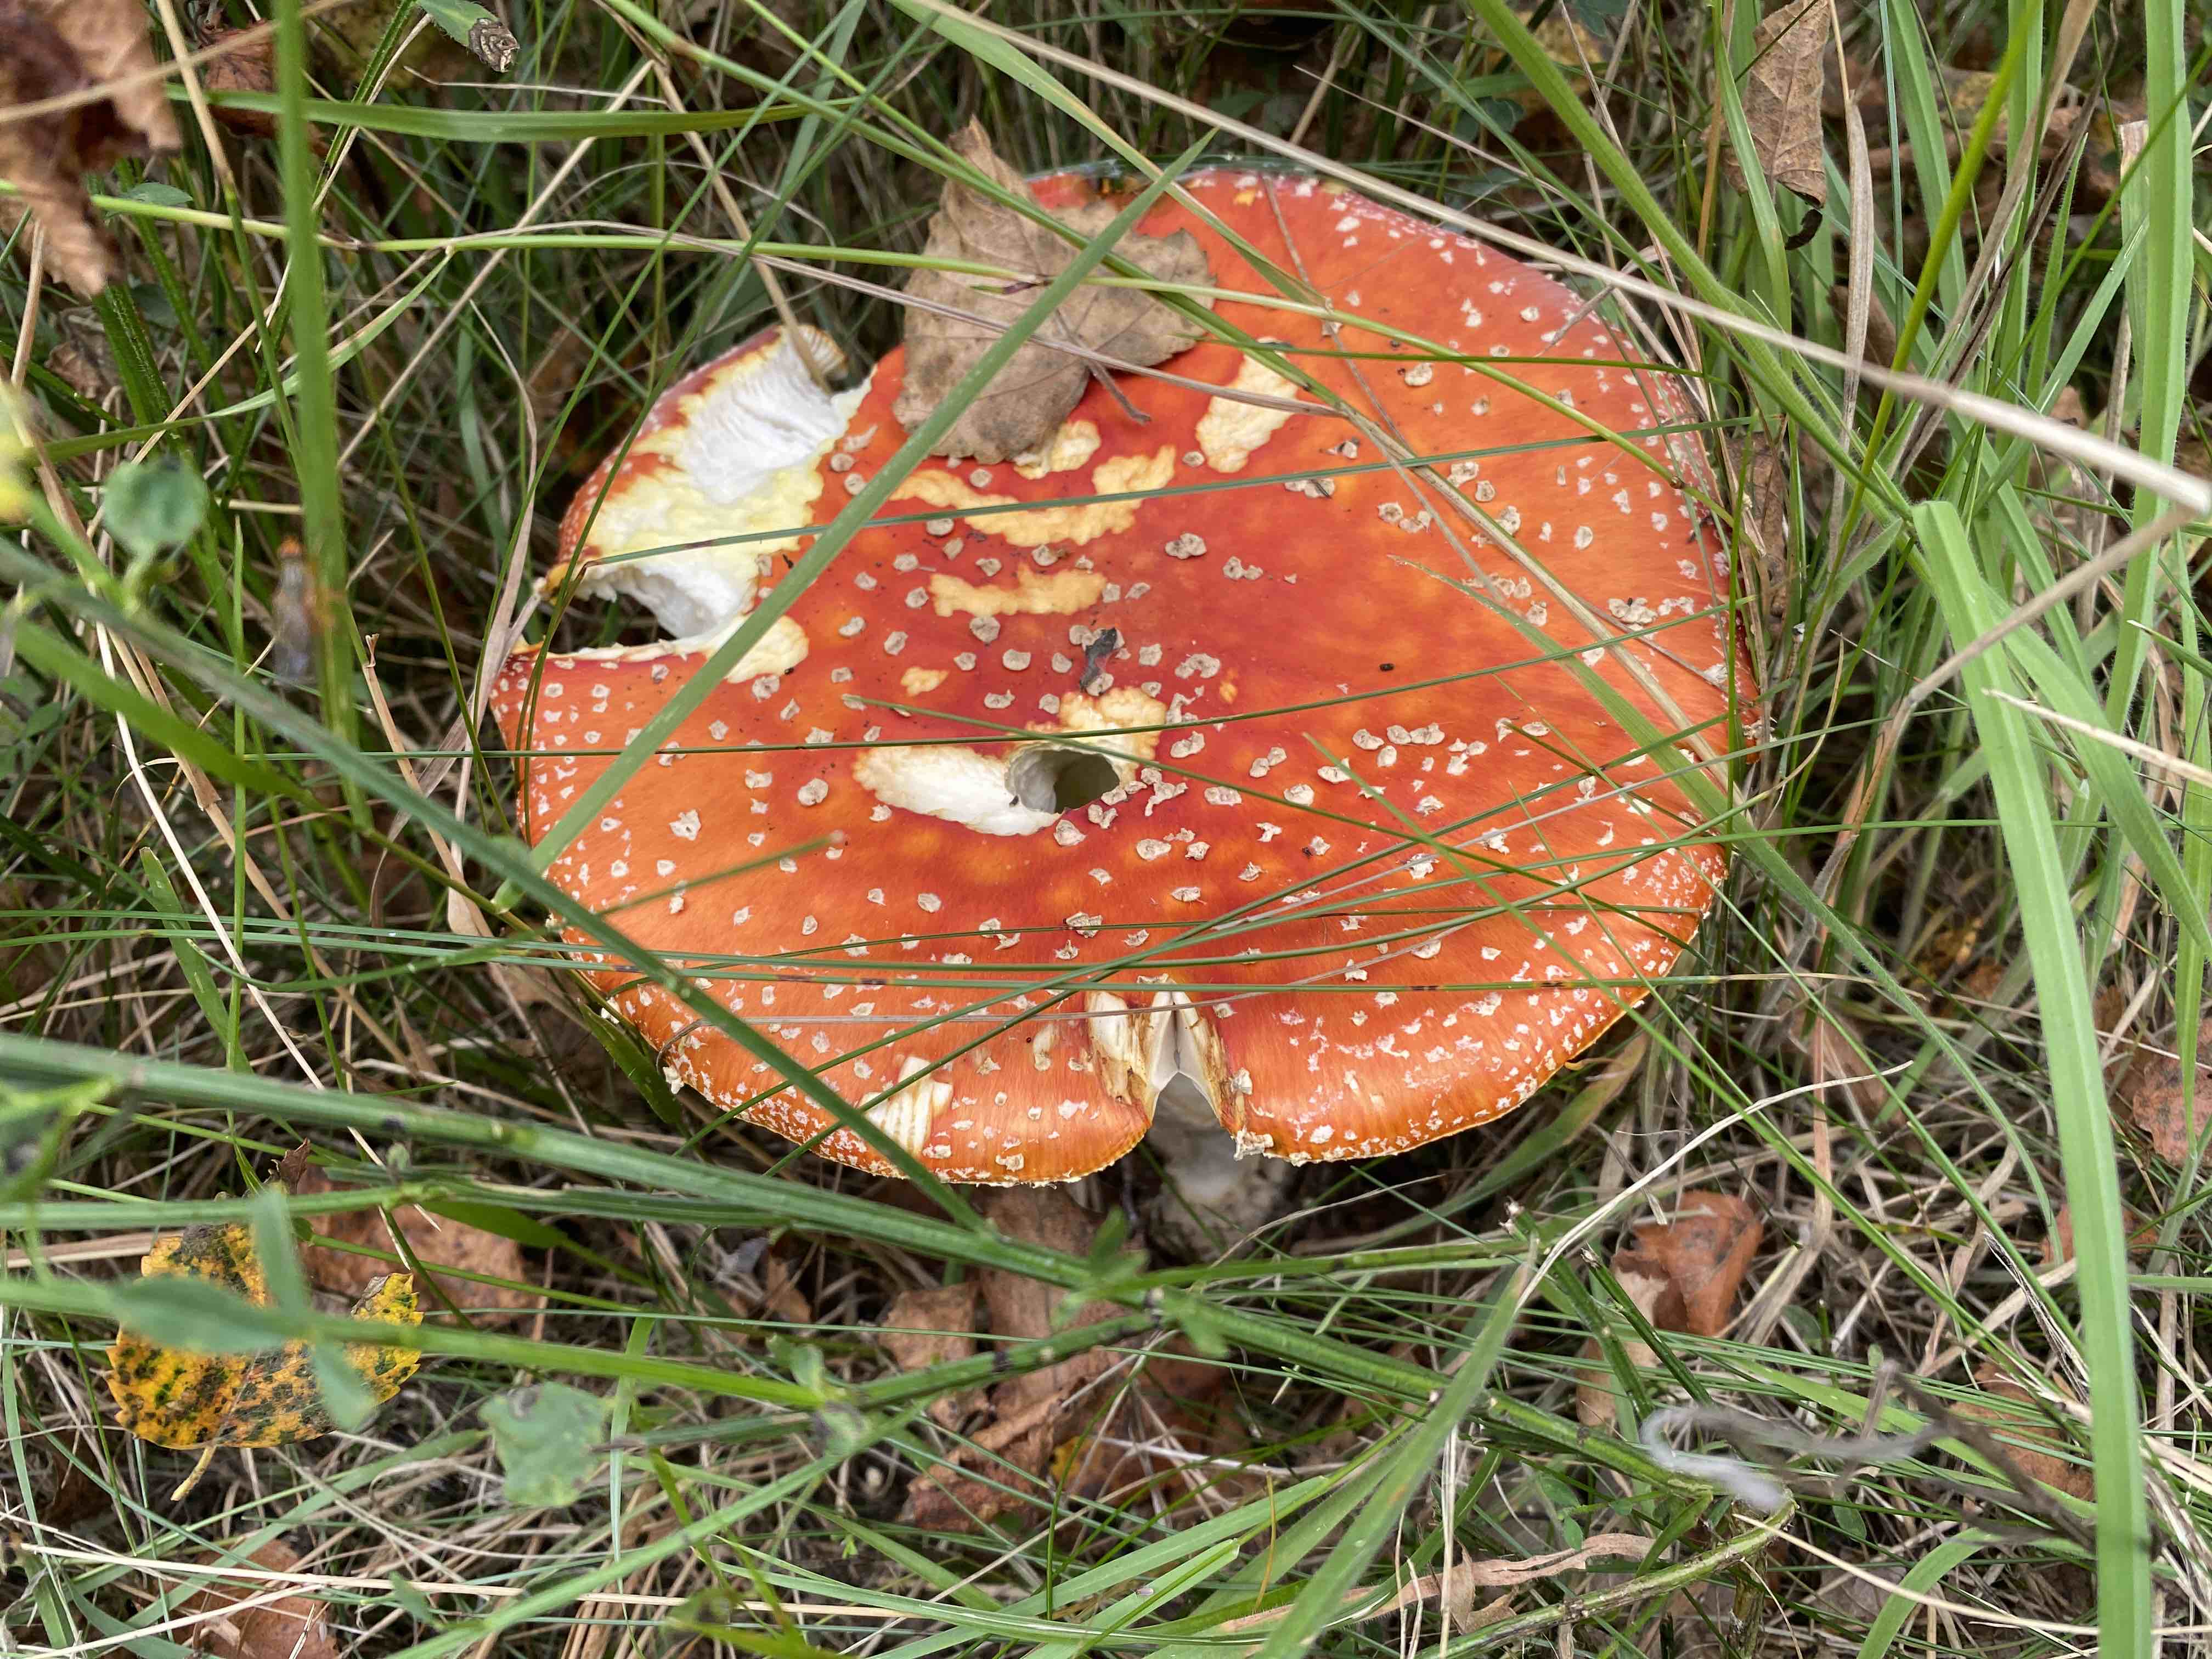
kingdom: Fungi
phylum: Basidiomycota
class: Agaricomycetes
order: Agaricales
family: Amanitaceae
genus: Amanita
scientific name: Amanita muscaria
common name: rød fluesvamp
